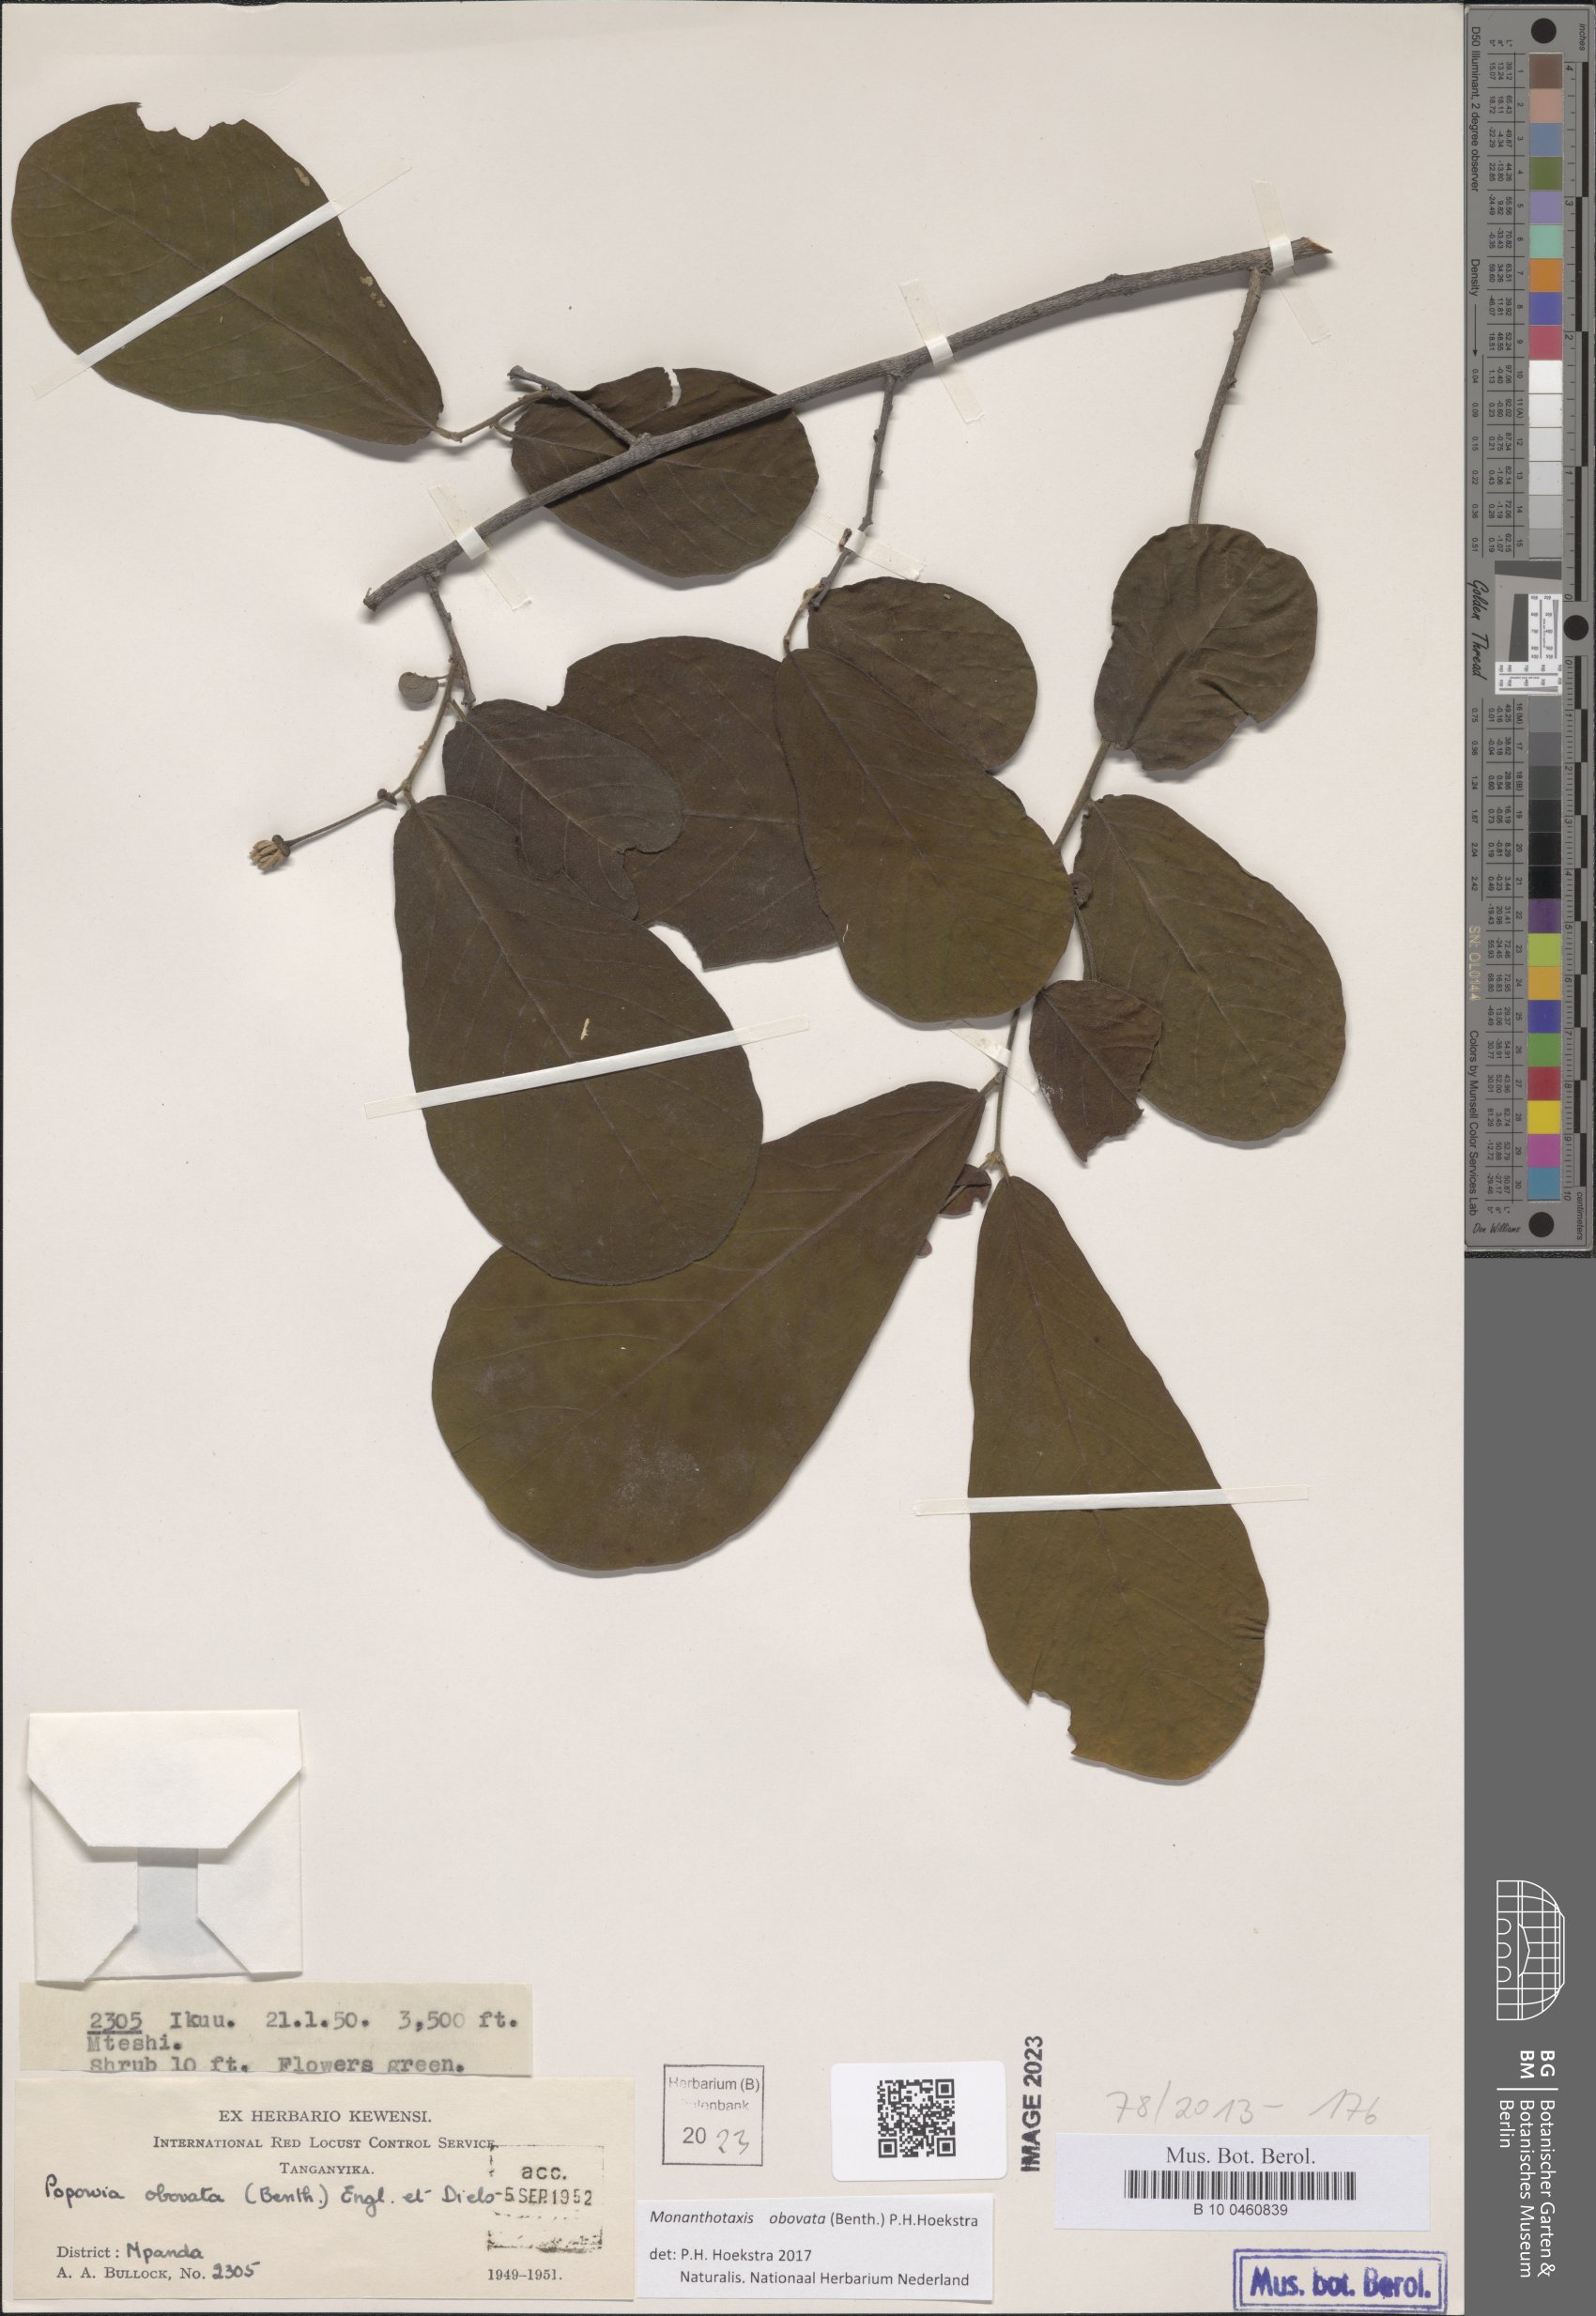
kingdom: Plantae
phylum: Tracheophyta
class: Magnoliopsida
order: Magnoliales
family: Annonaceae
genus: Friesodielsia
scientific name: Friesodielsia obovata
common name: Monkey fingers
